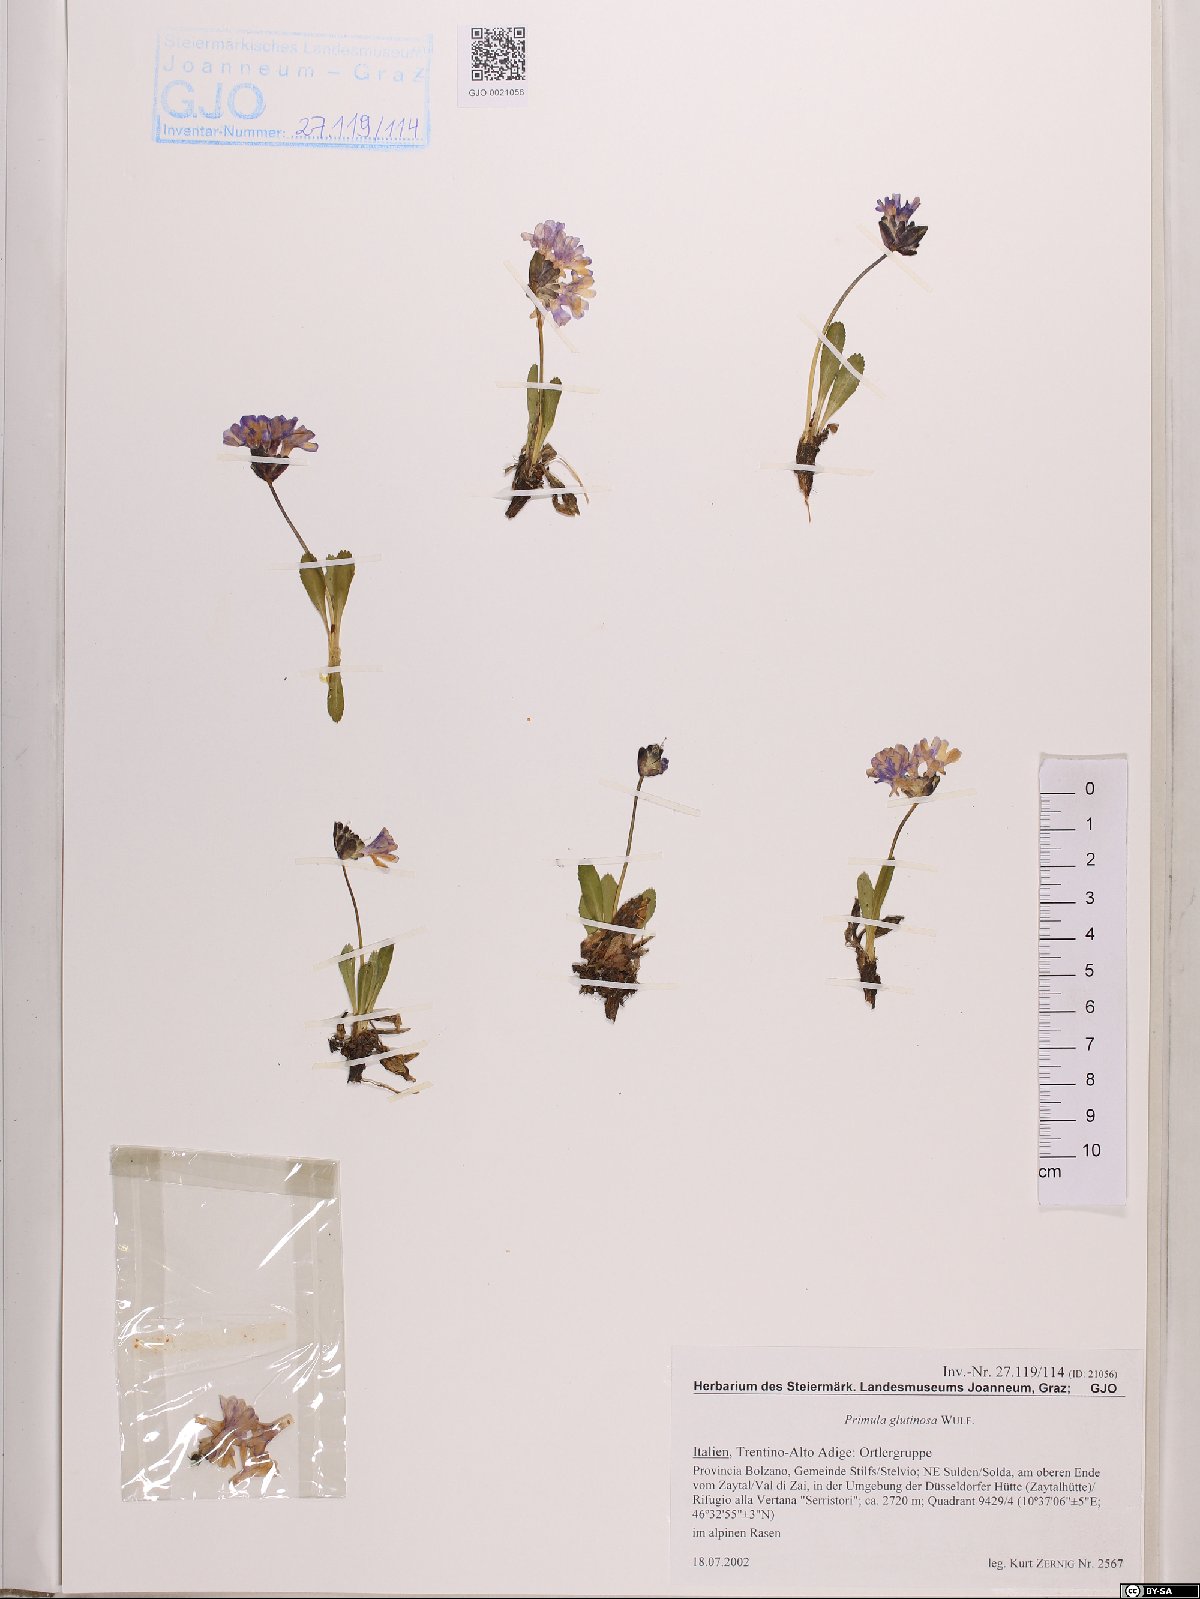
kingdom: Plantae
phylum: Tracheophyta
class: Magnoliopsida
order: Ericales
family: Primulaceae
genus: Primula
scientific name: Primula glutinosa
